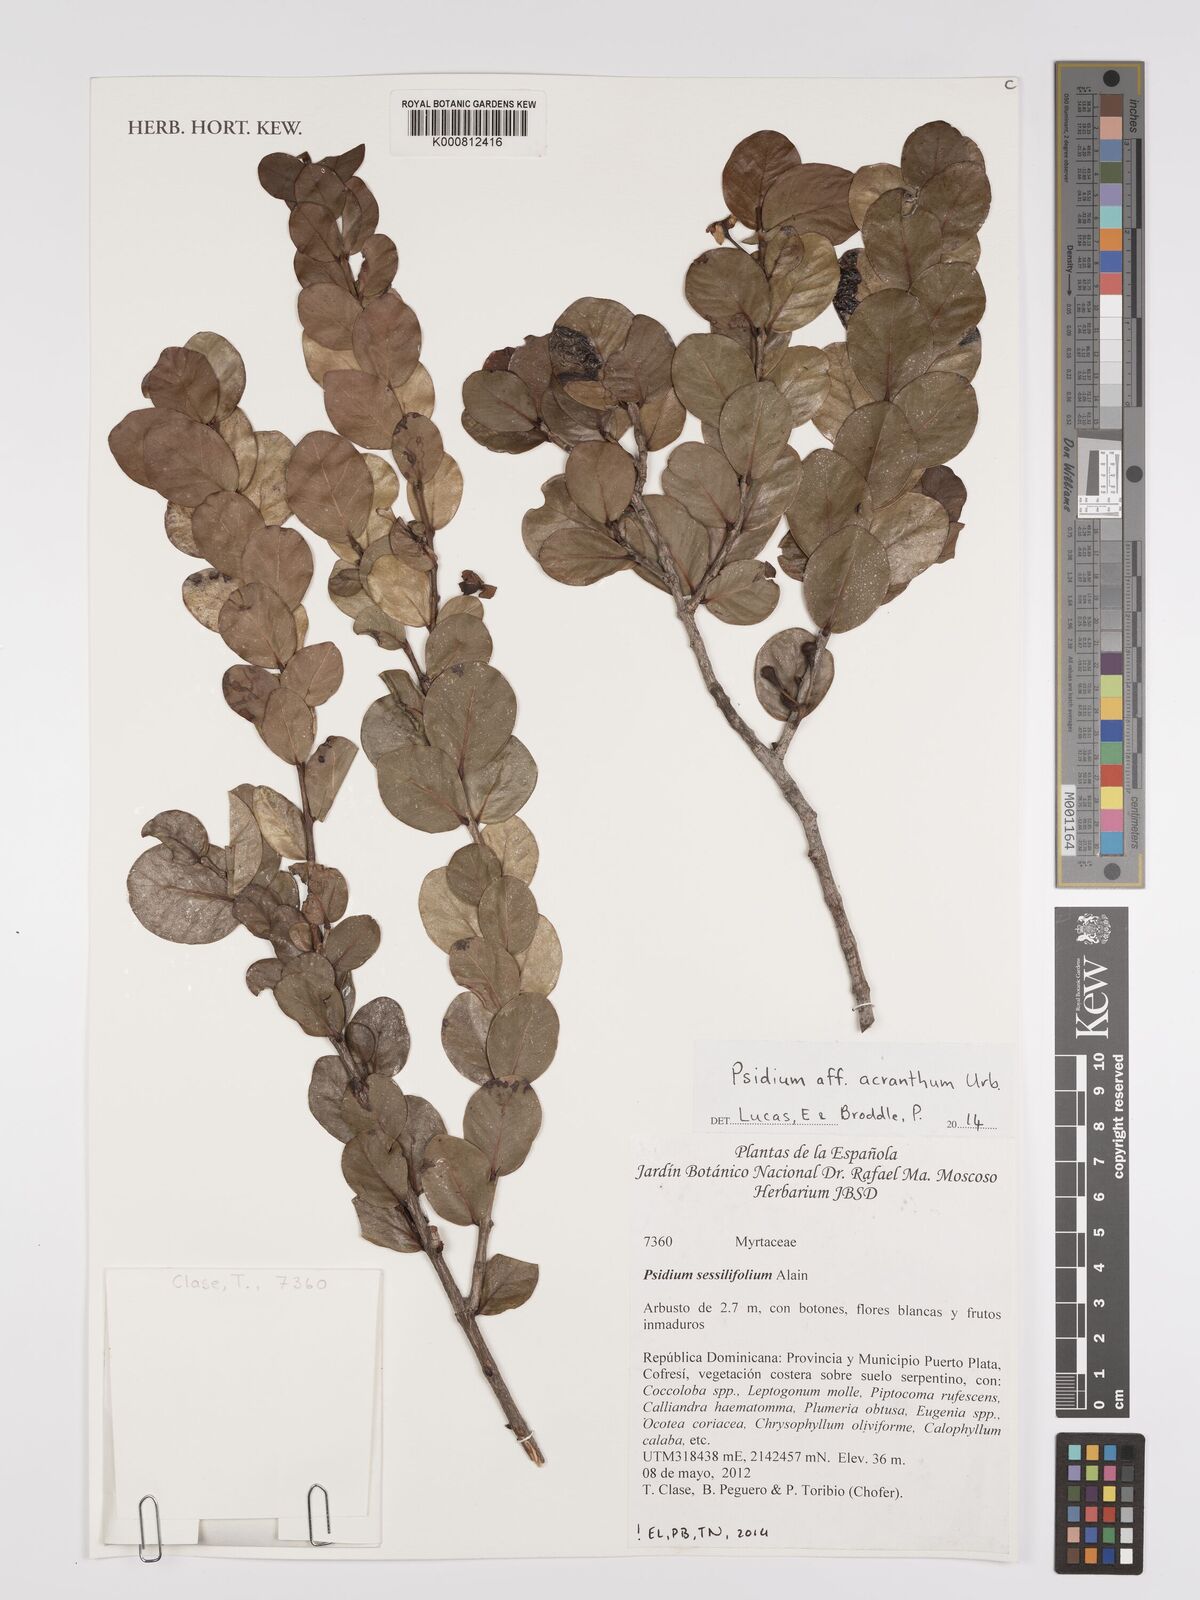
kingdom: Plantae
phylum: Tracheophyta
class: Magnoliopsida
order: Myrtales
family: Myrtaceae
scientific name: Myrtaceae
